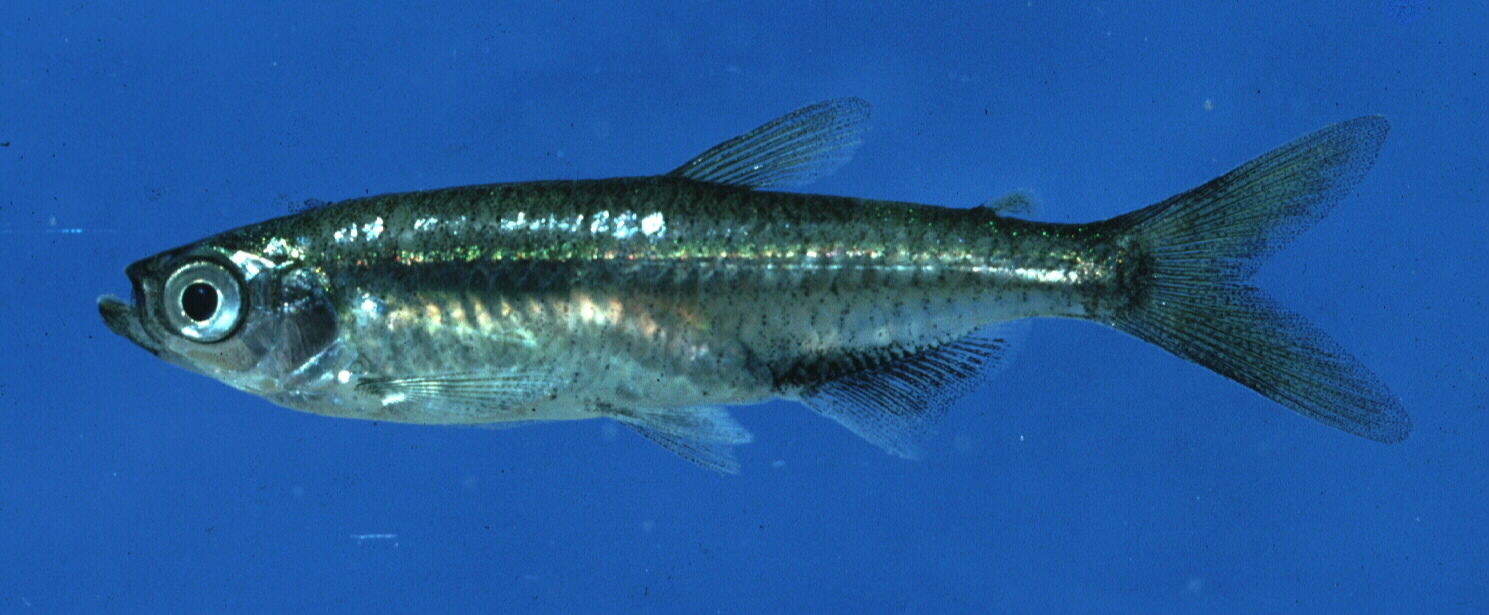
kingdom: Animalia
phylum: Chordata
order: Characiformes
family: Alestidae
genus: Hemigrammopetersius
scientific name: Hemigrammopetersius barnardi
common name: Barnard's robber
